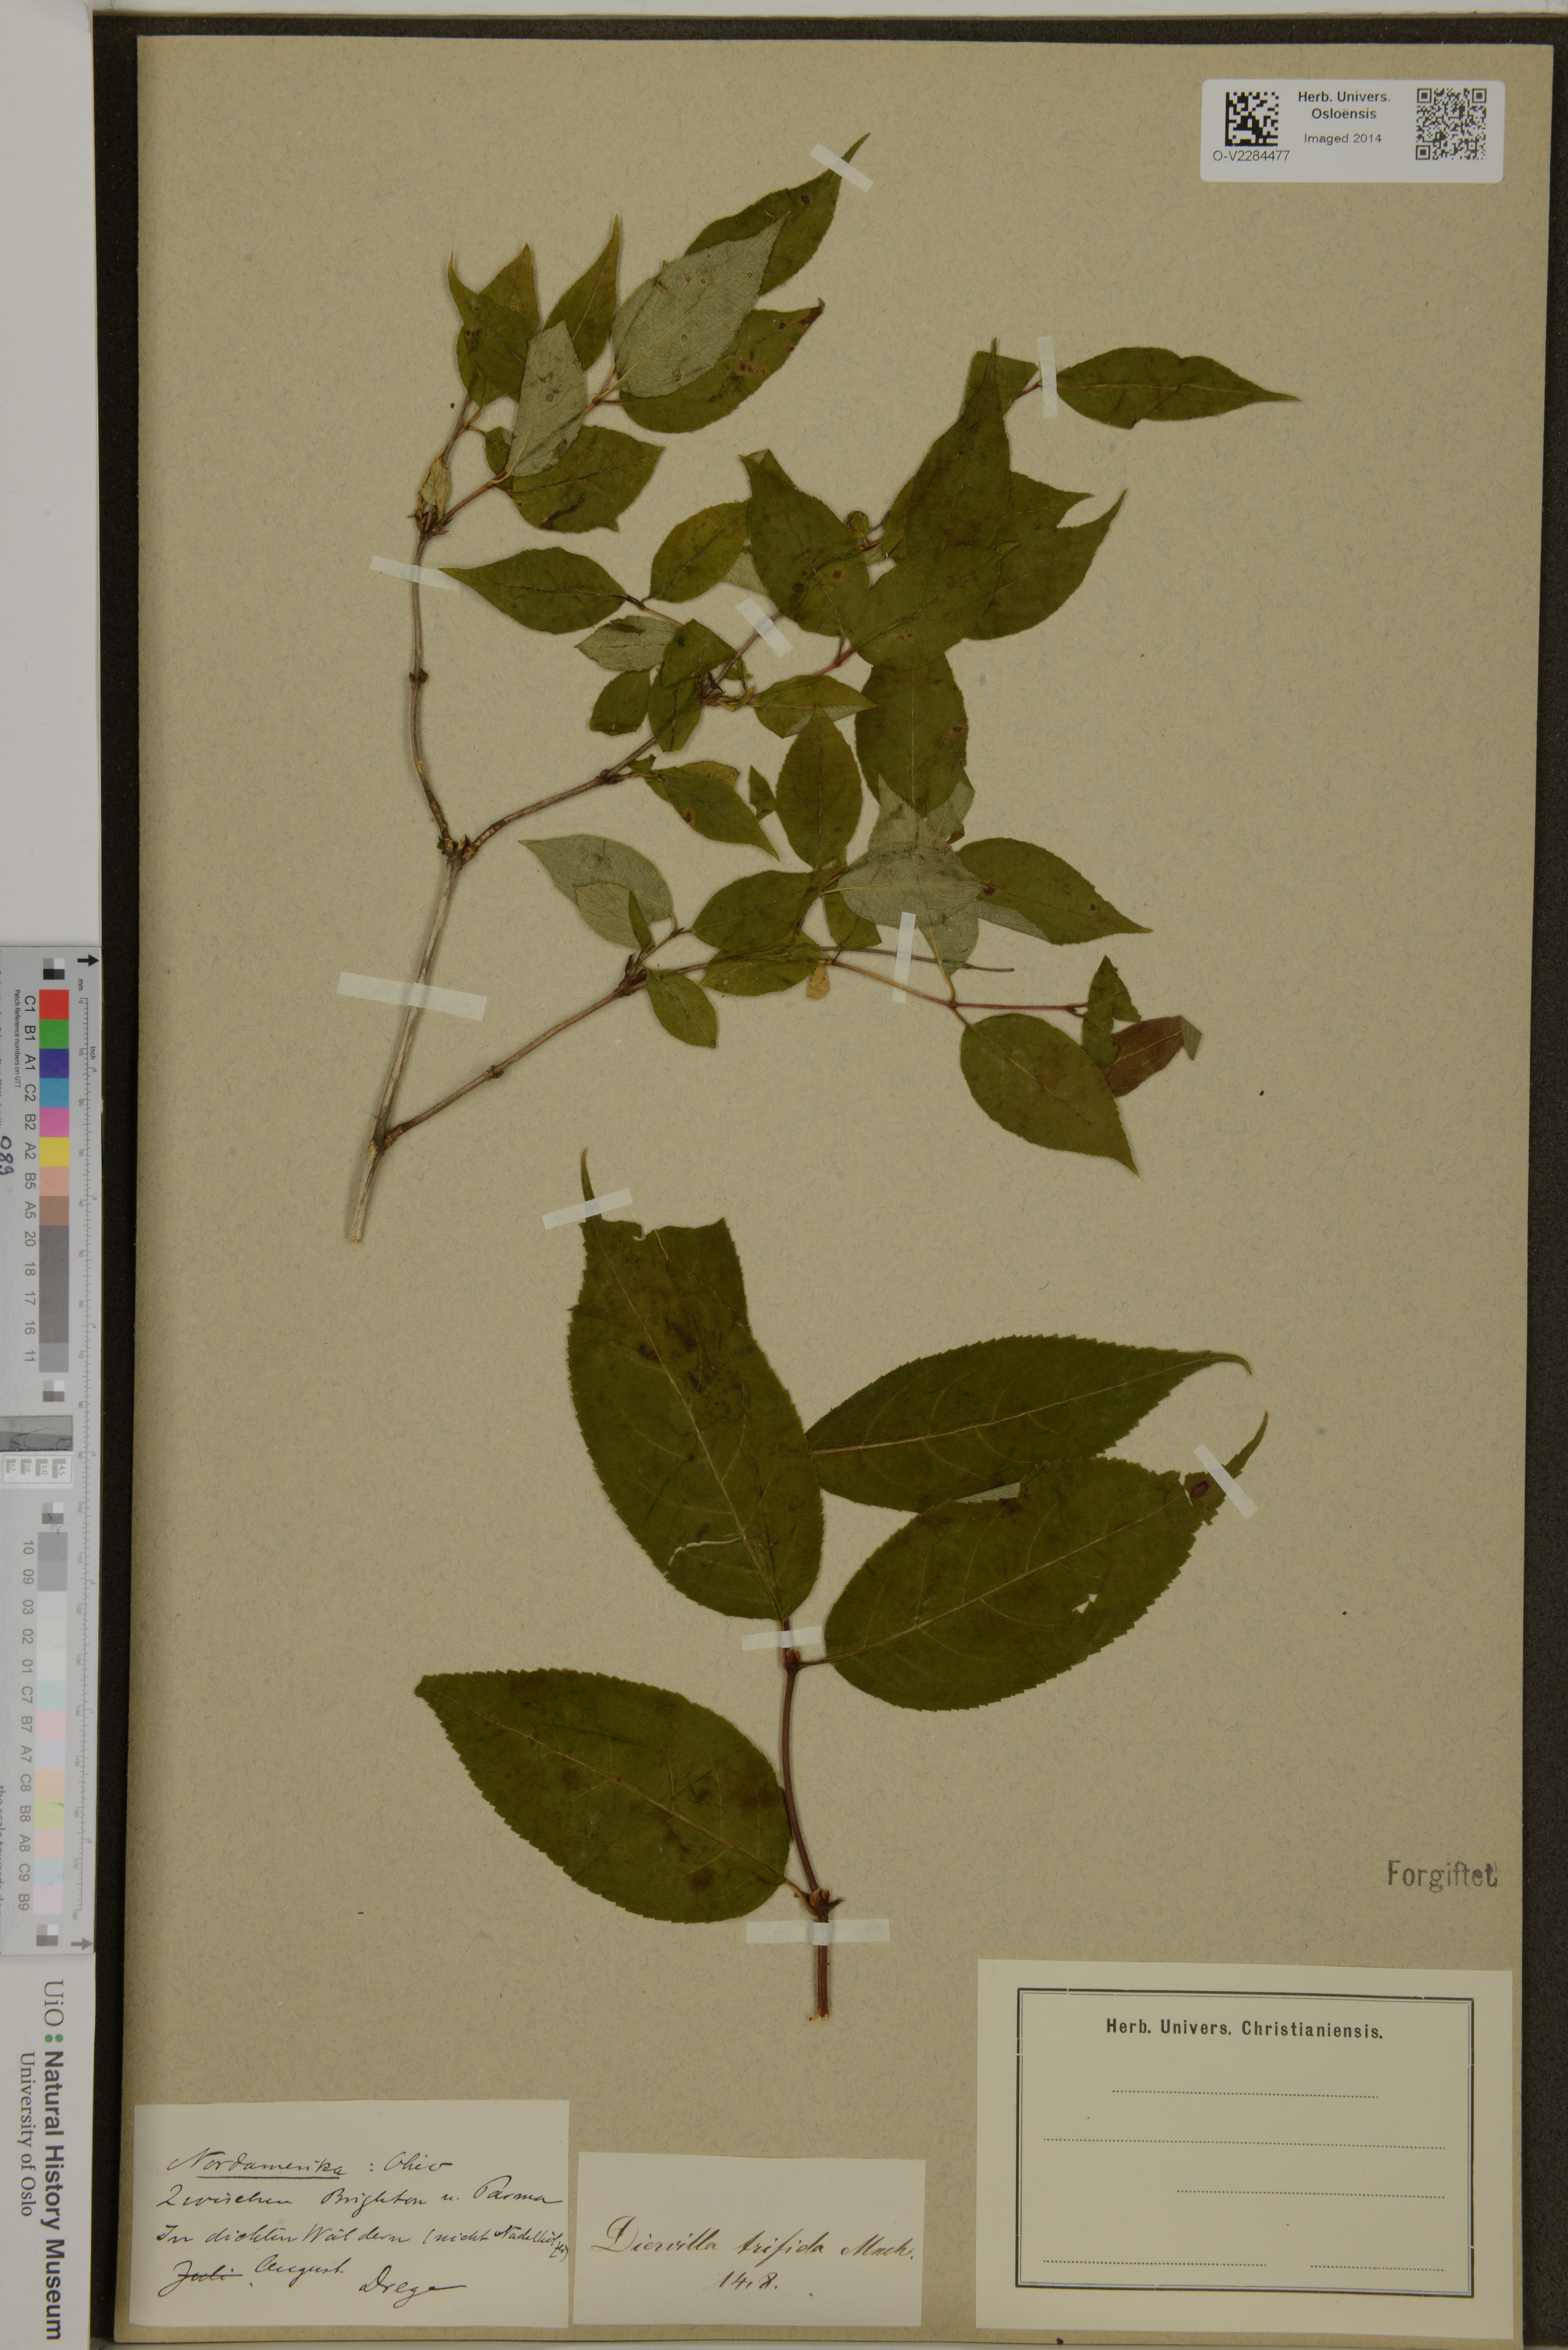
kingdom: Plantae
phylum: Tracheophyta
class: Magnoliopsida
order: Dipsacales
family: Caprifoliaceae
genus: Diervilla
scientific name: Diervilla lonicera
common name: Bush-honeysuckle
